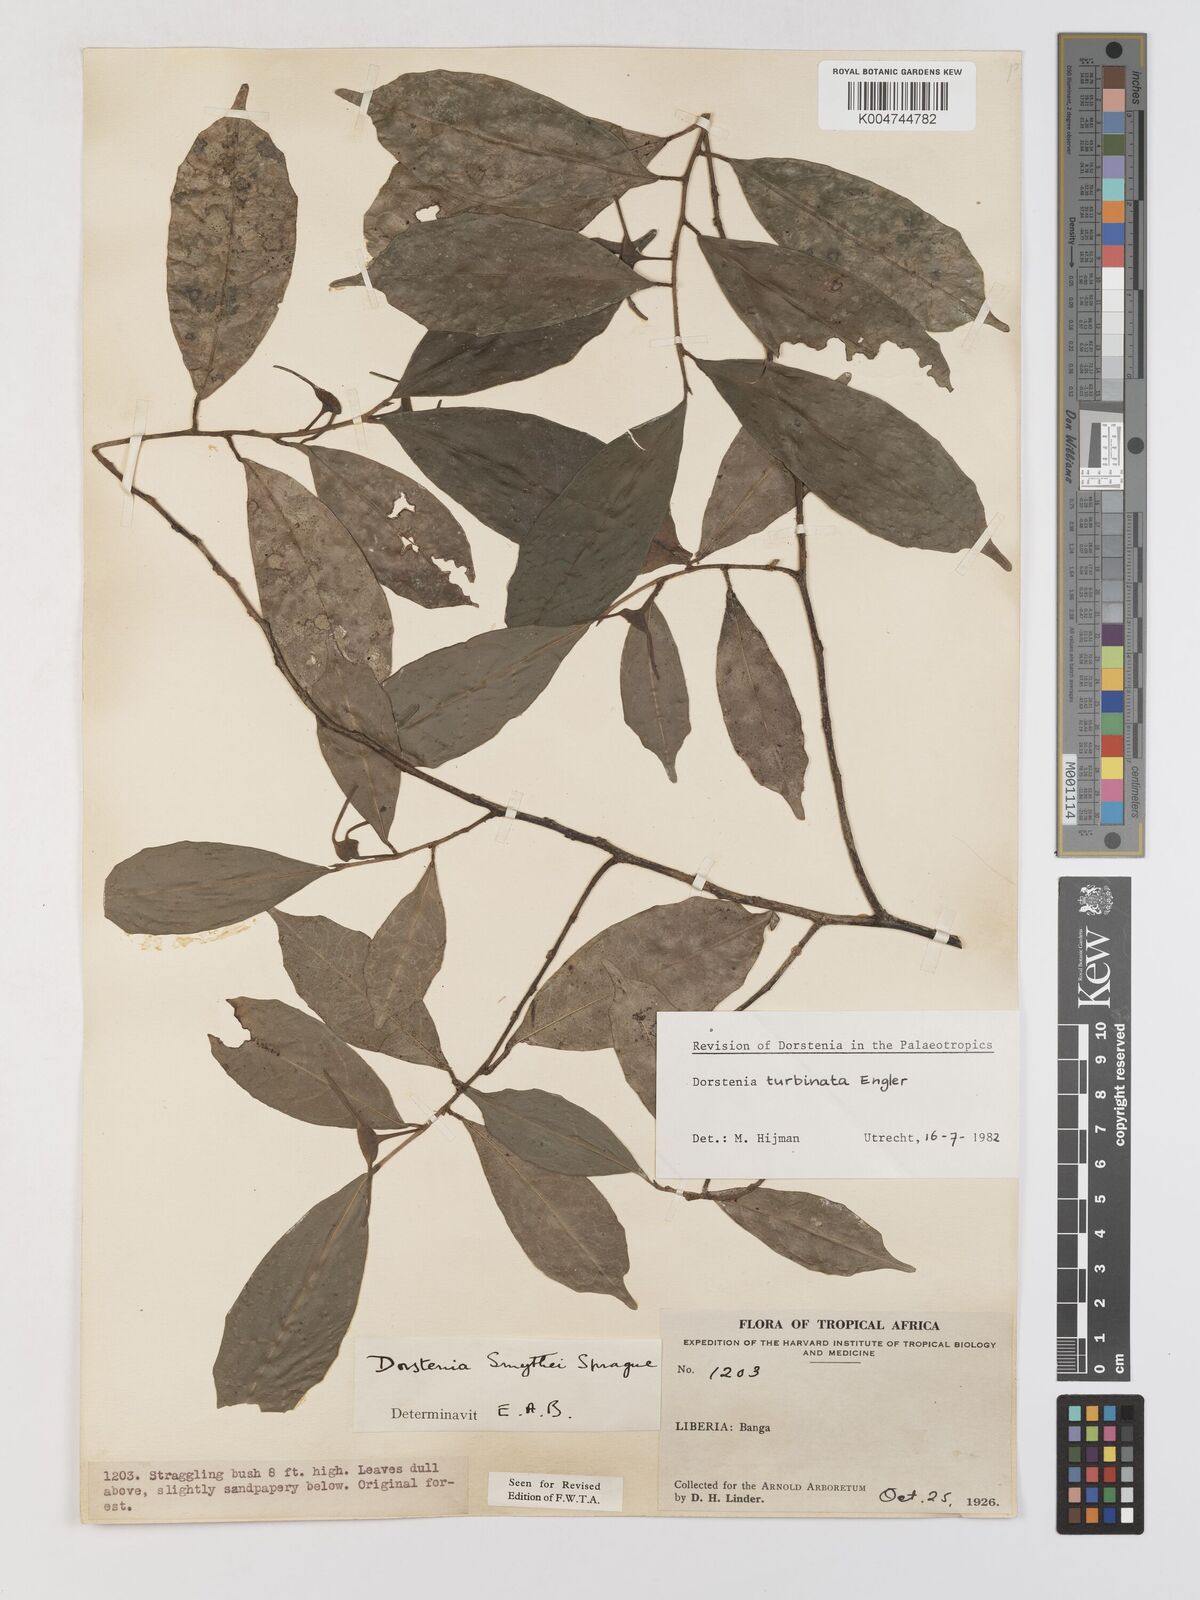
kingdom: Plantae
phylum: Tracheophyta
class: Magnoliopsida
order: Rosales
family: Moraceae
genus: Hijmania
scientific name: Hijmania turbinata
